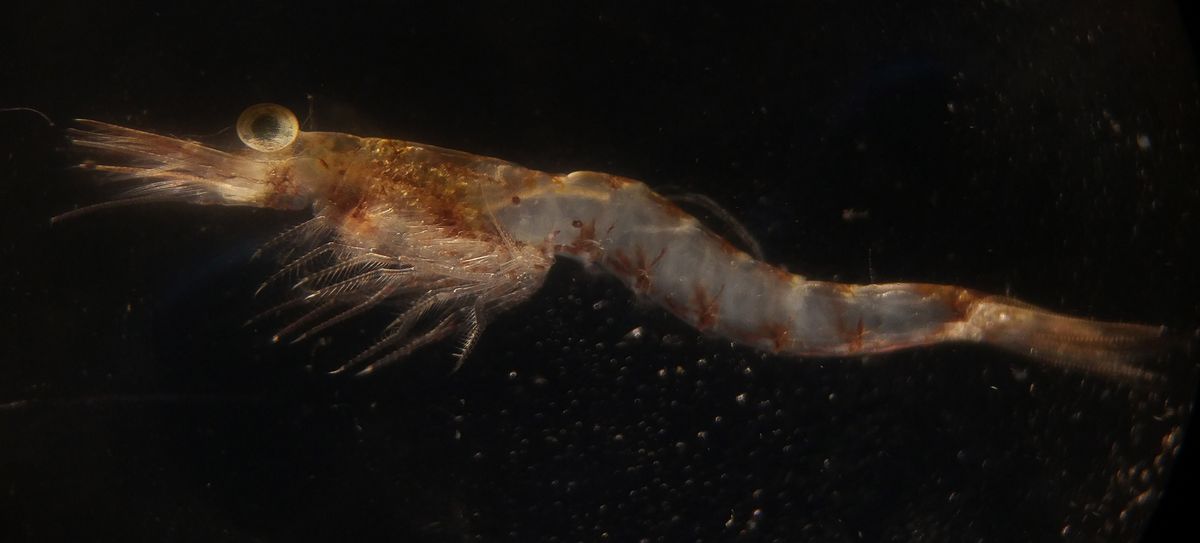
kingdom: Animalia
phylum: Arthropoda
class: Malacostraca
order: Mysida
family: Mysidae
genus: Mysis
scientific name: Mysis mixta
